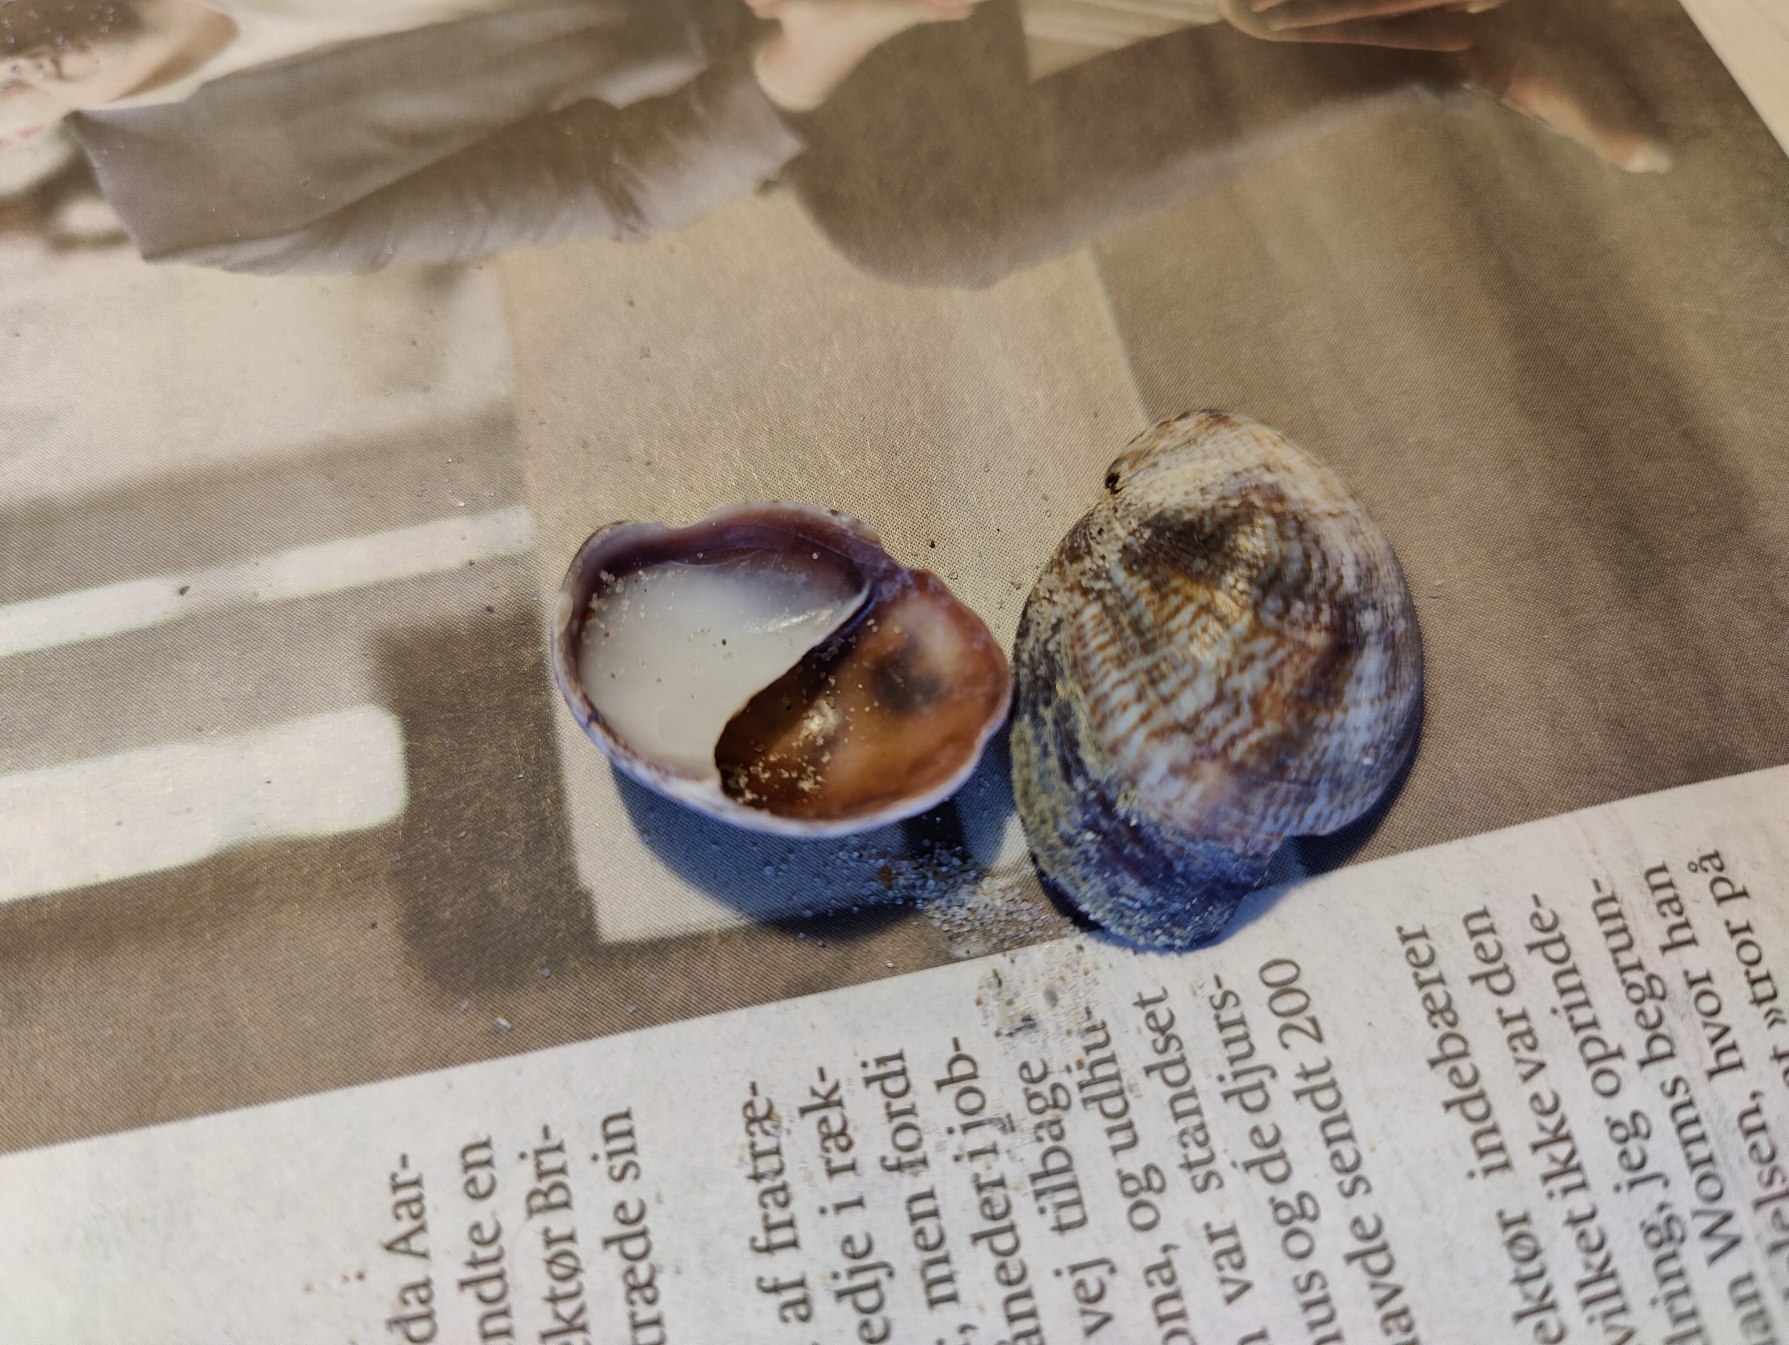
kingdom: Animalia
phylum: Mollusca
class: Gastropoda
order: Littorinimorpha
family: Calyptraeidae
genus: Crepidula
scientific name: Crepidula fornicata
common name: Tøffelsnegl
